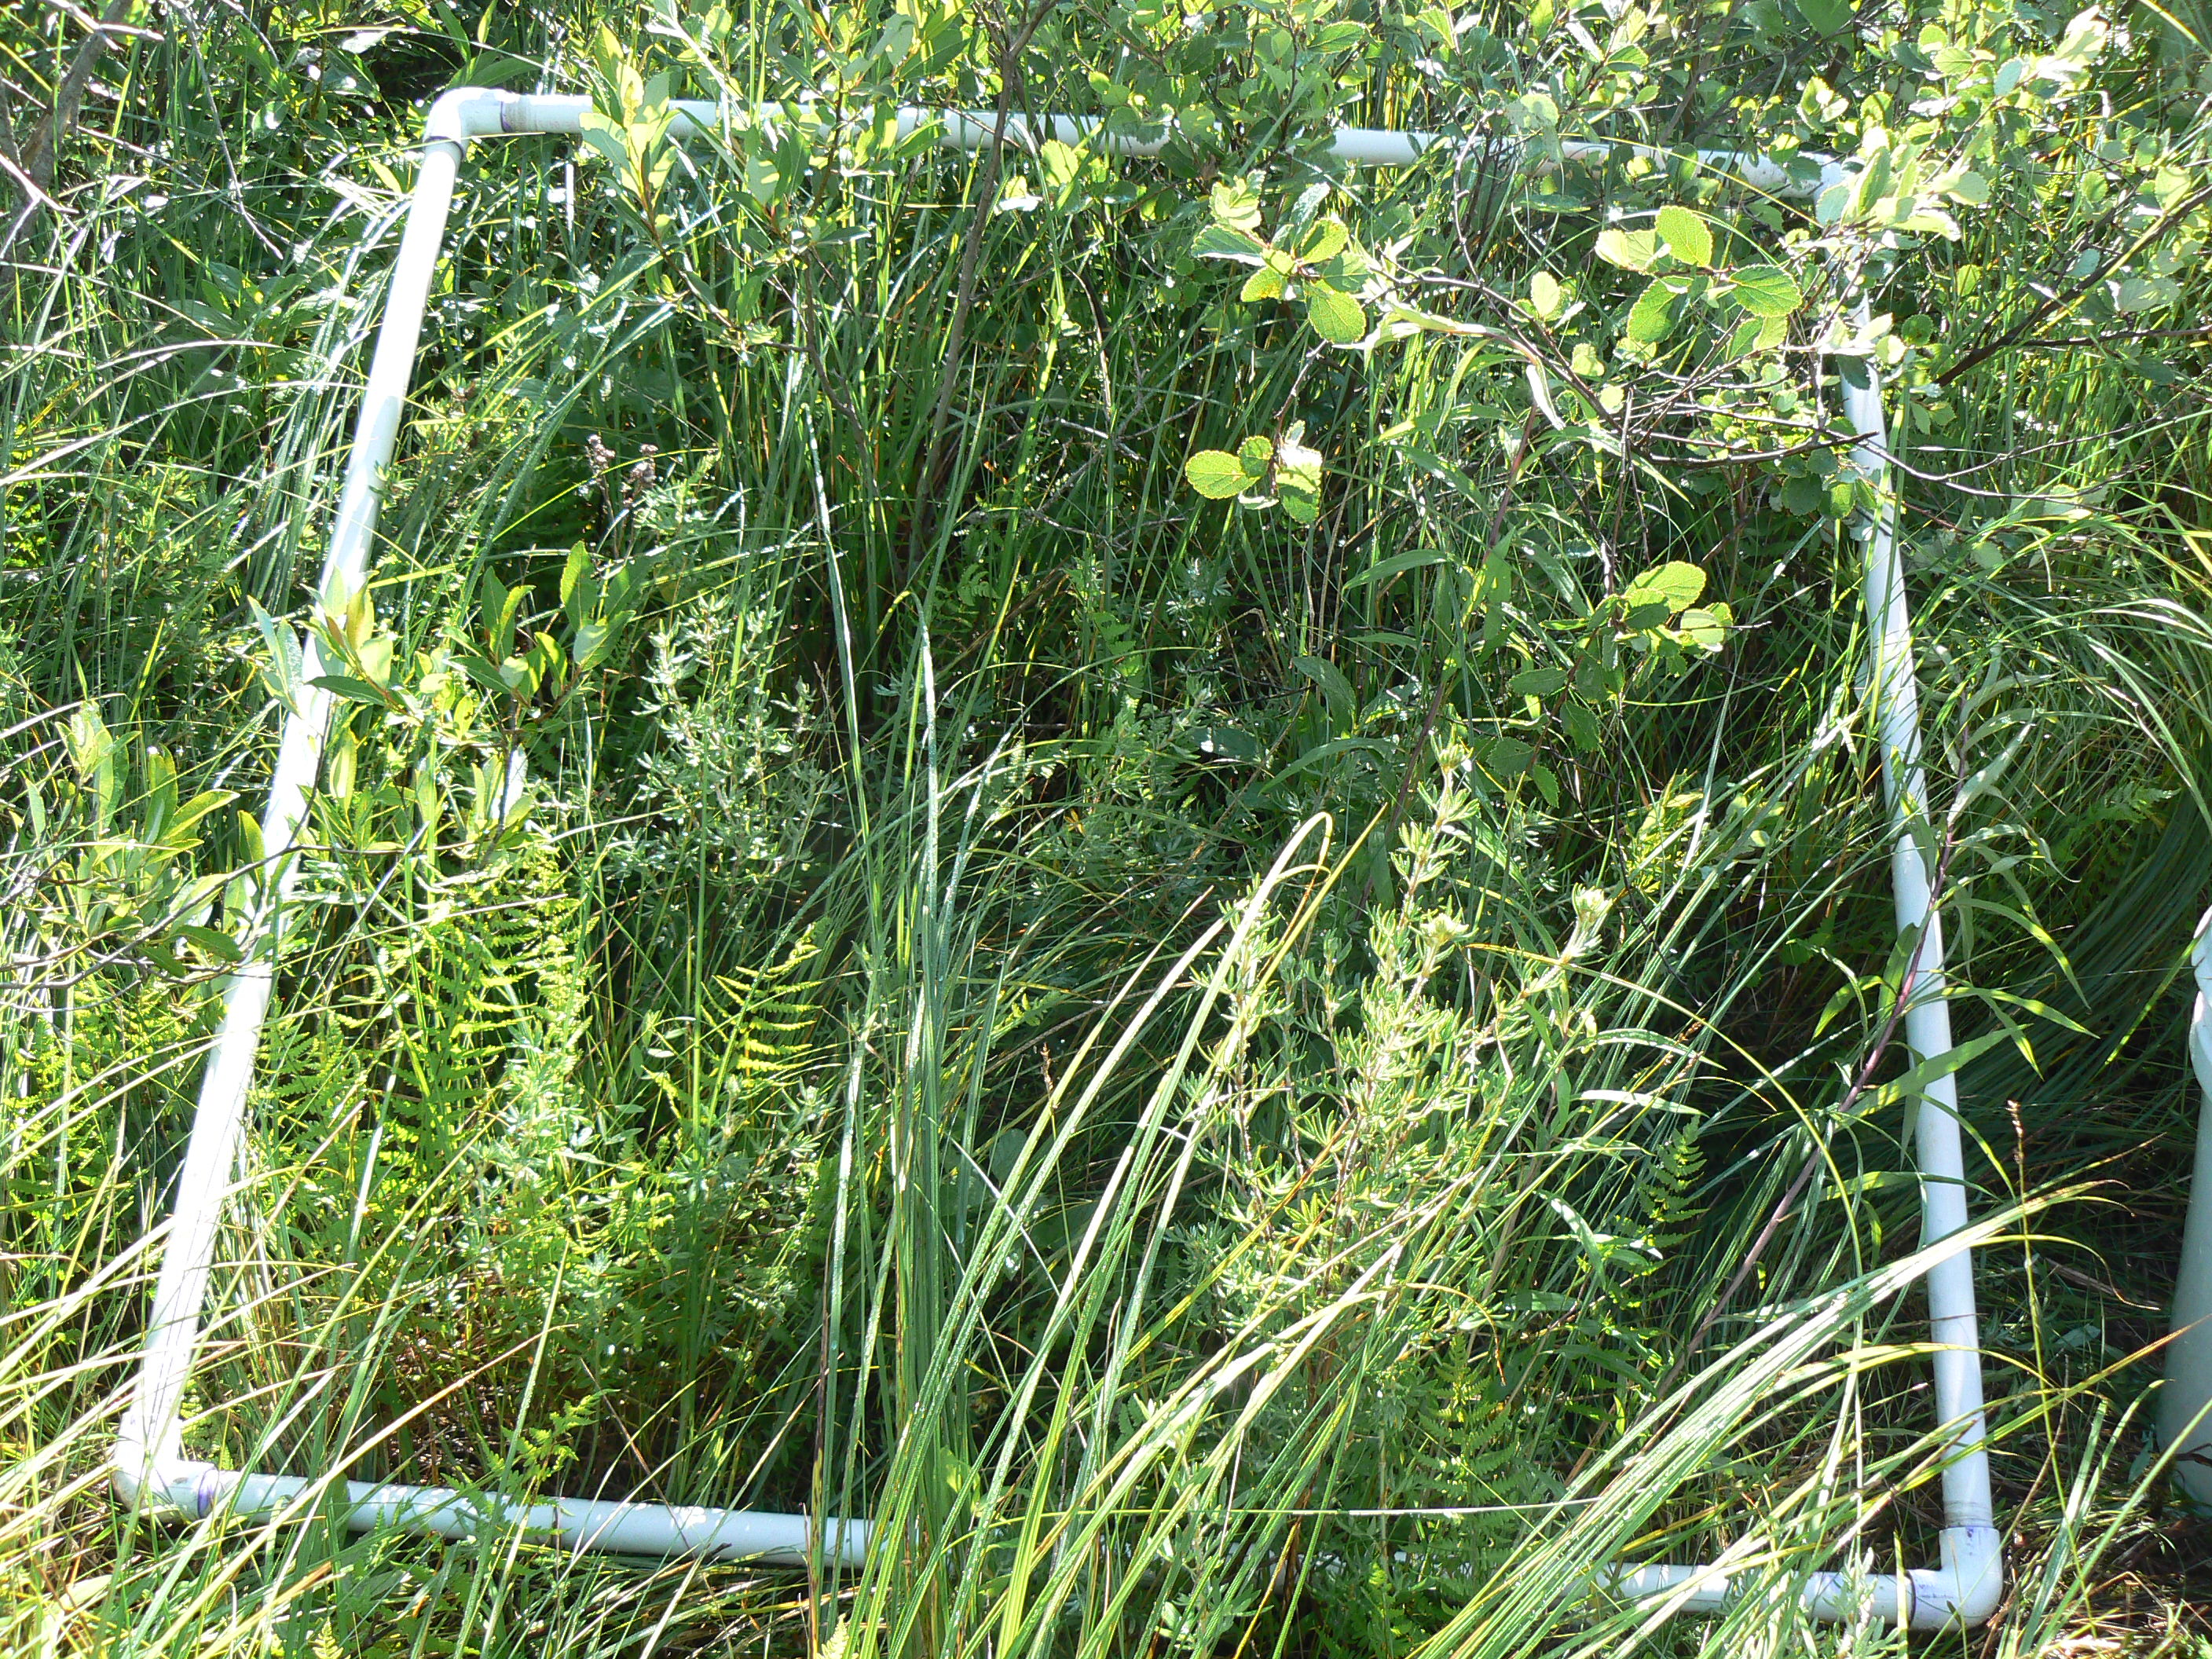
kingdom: Plantae
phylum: Tracheophyta
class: Liliopsida
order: Poales
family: Cyperaceae
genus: Carex
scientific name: Carex sterilis
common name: Dioecious sedge
